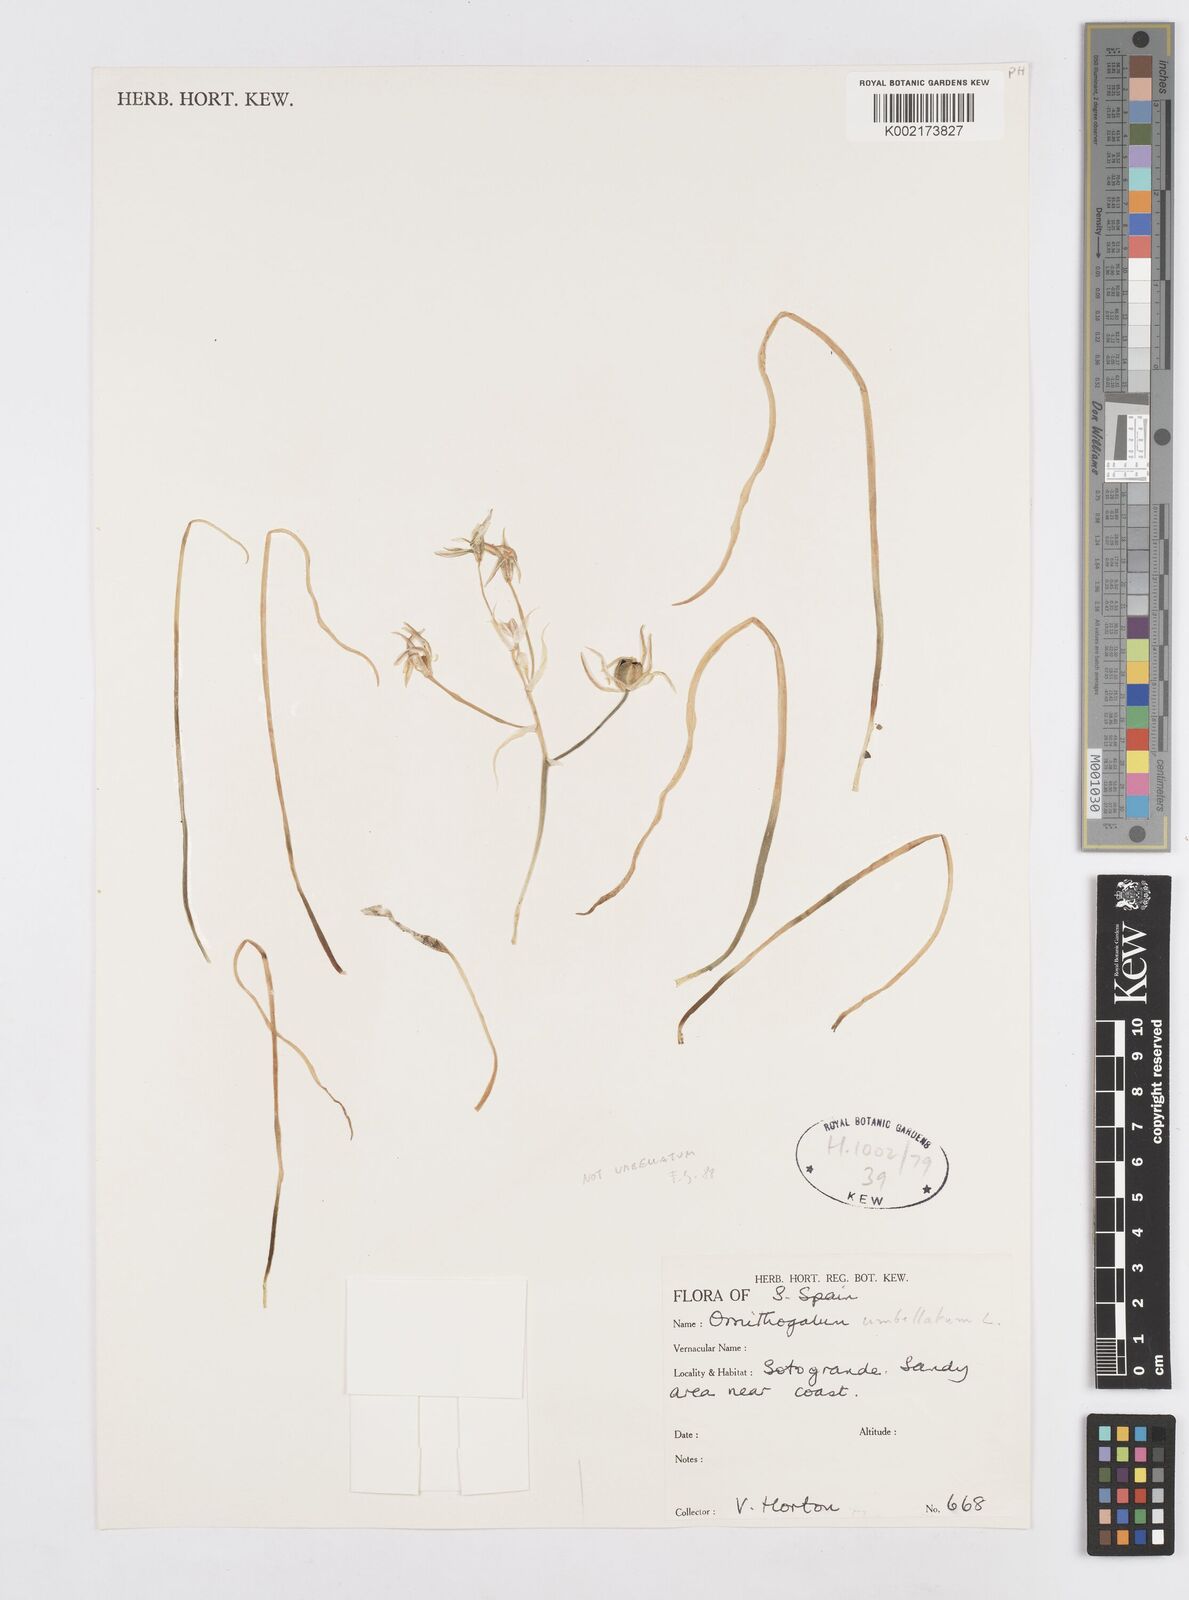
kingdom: Plantae
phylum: Tracheophyta
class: Liliopsida
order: Asparagales
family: Asparagaceae
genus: Ornithogalum
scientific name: Ornithogalum umbellatum
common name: Garden star-of-bethlehem
